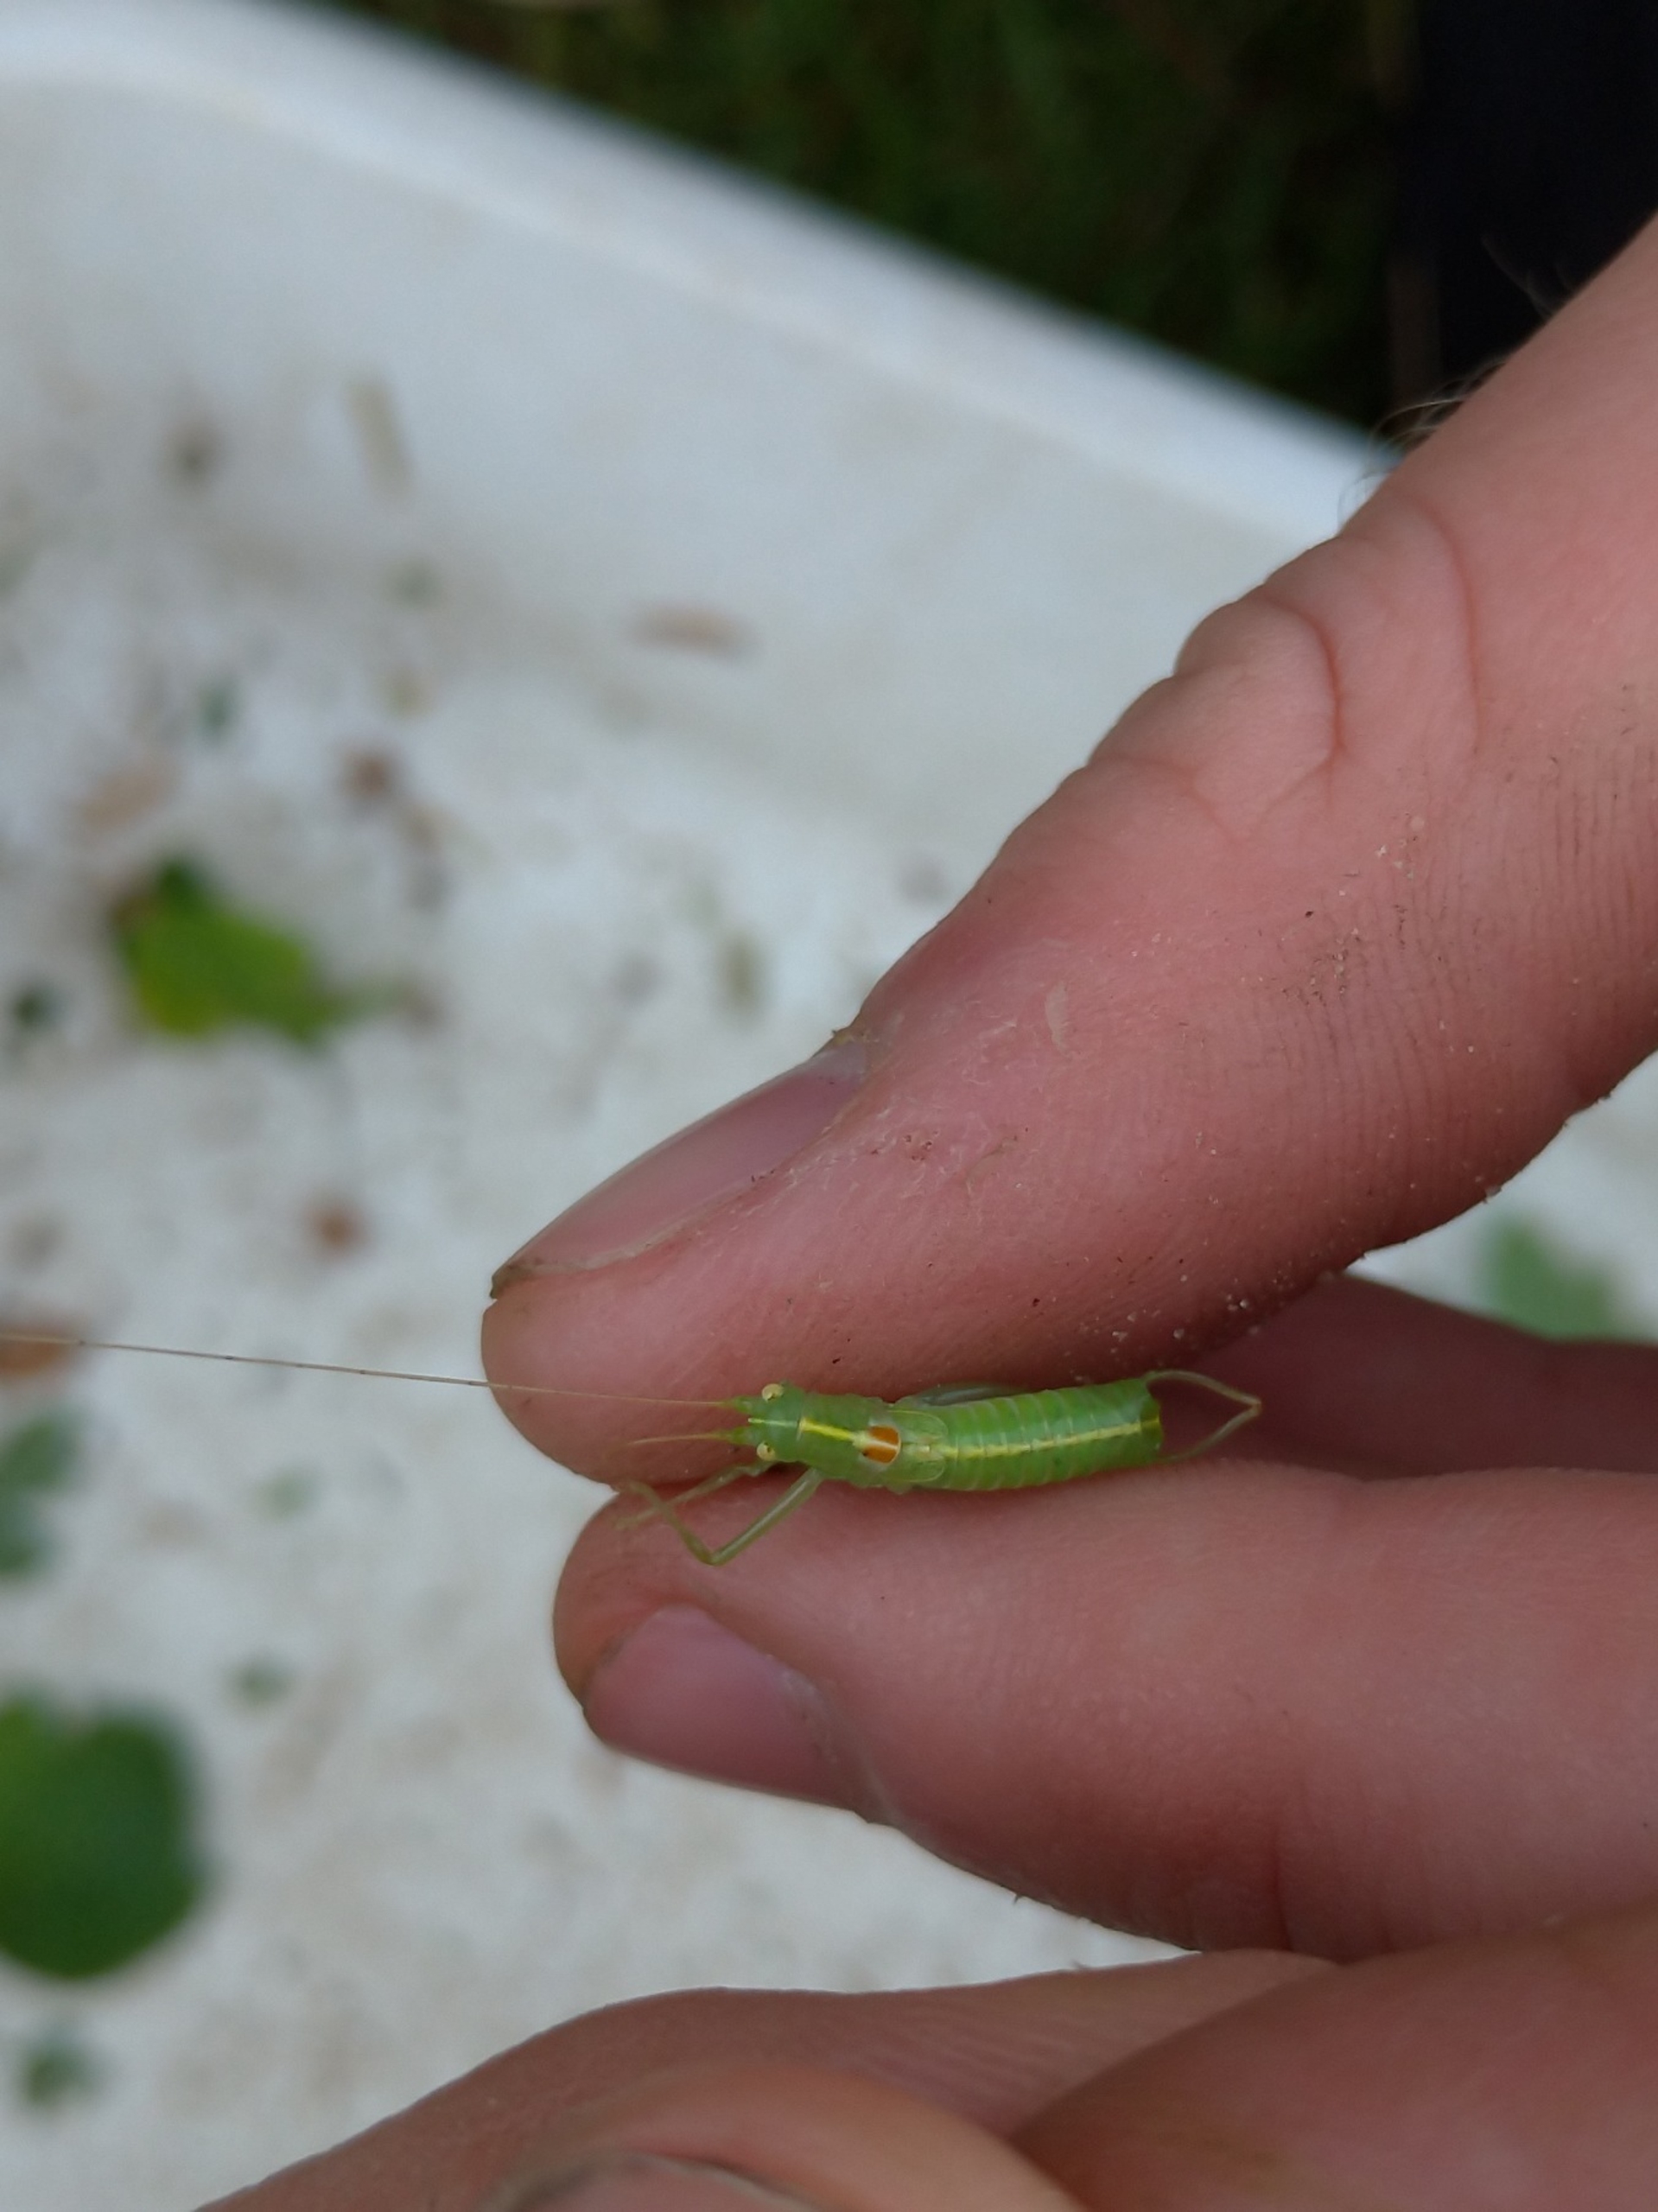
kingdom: Animalia
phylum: Arthropoda
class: Insecta
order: Orthoptera
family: Tettigoniidae
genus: Meconema
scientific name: Meconema meridionale
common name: Kortvinget egegræshoppe
